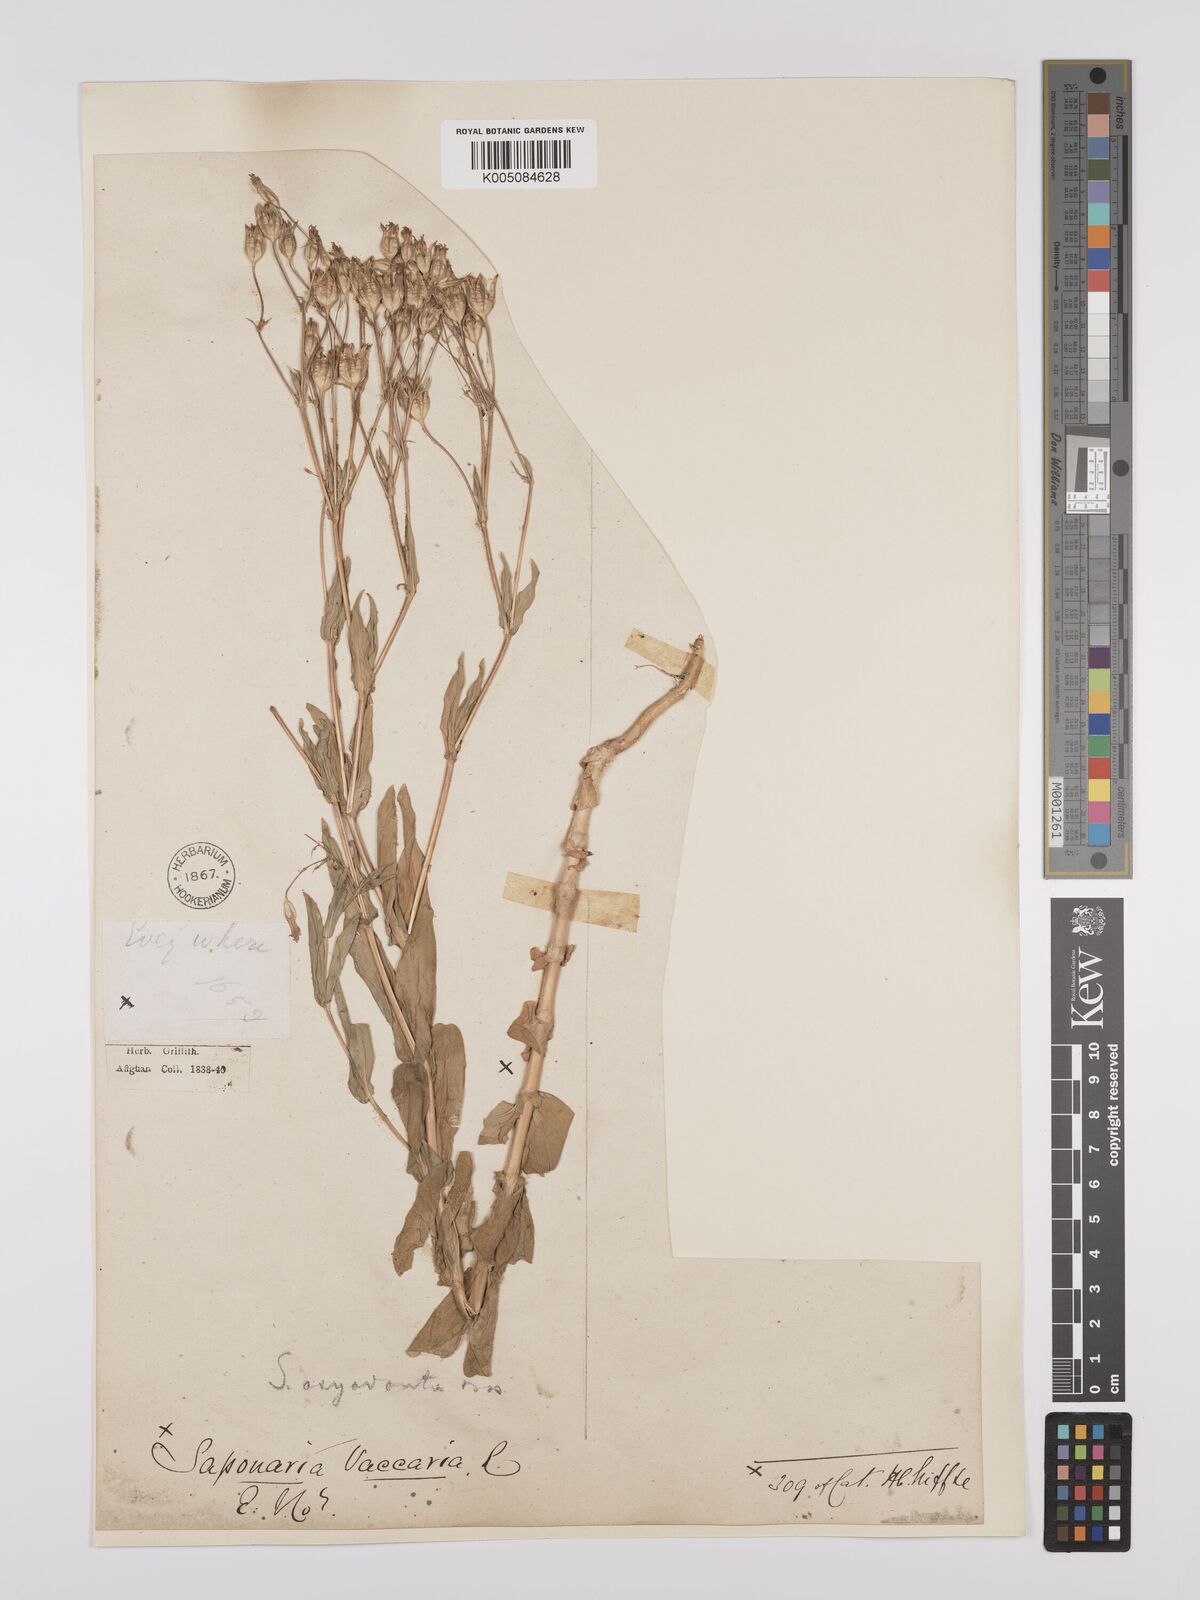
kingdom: Plantae
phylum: Tracheophyta
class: Magnoliopsida
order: Caryophyllales
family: Caryophyllaceae
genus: Gypsophila
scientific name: Gypsophila vaccaria
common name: Cow soapwort
